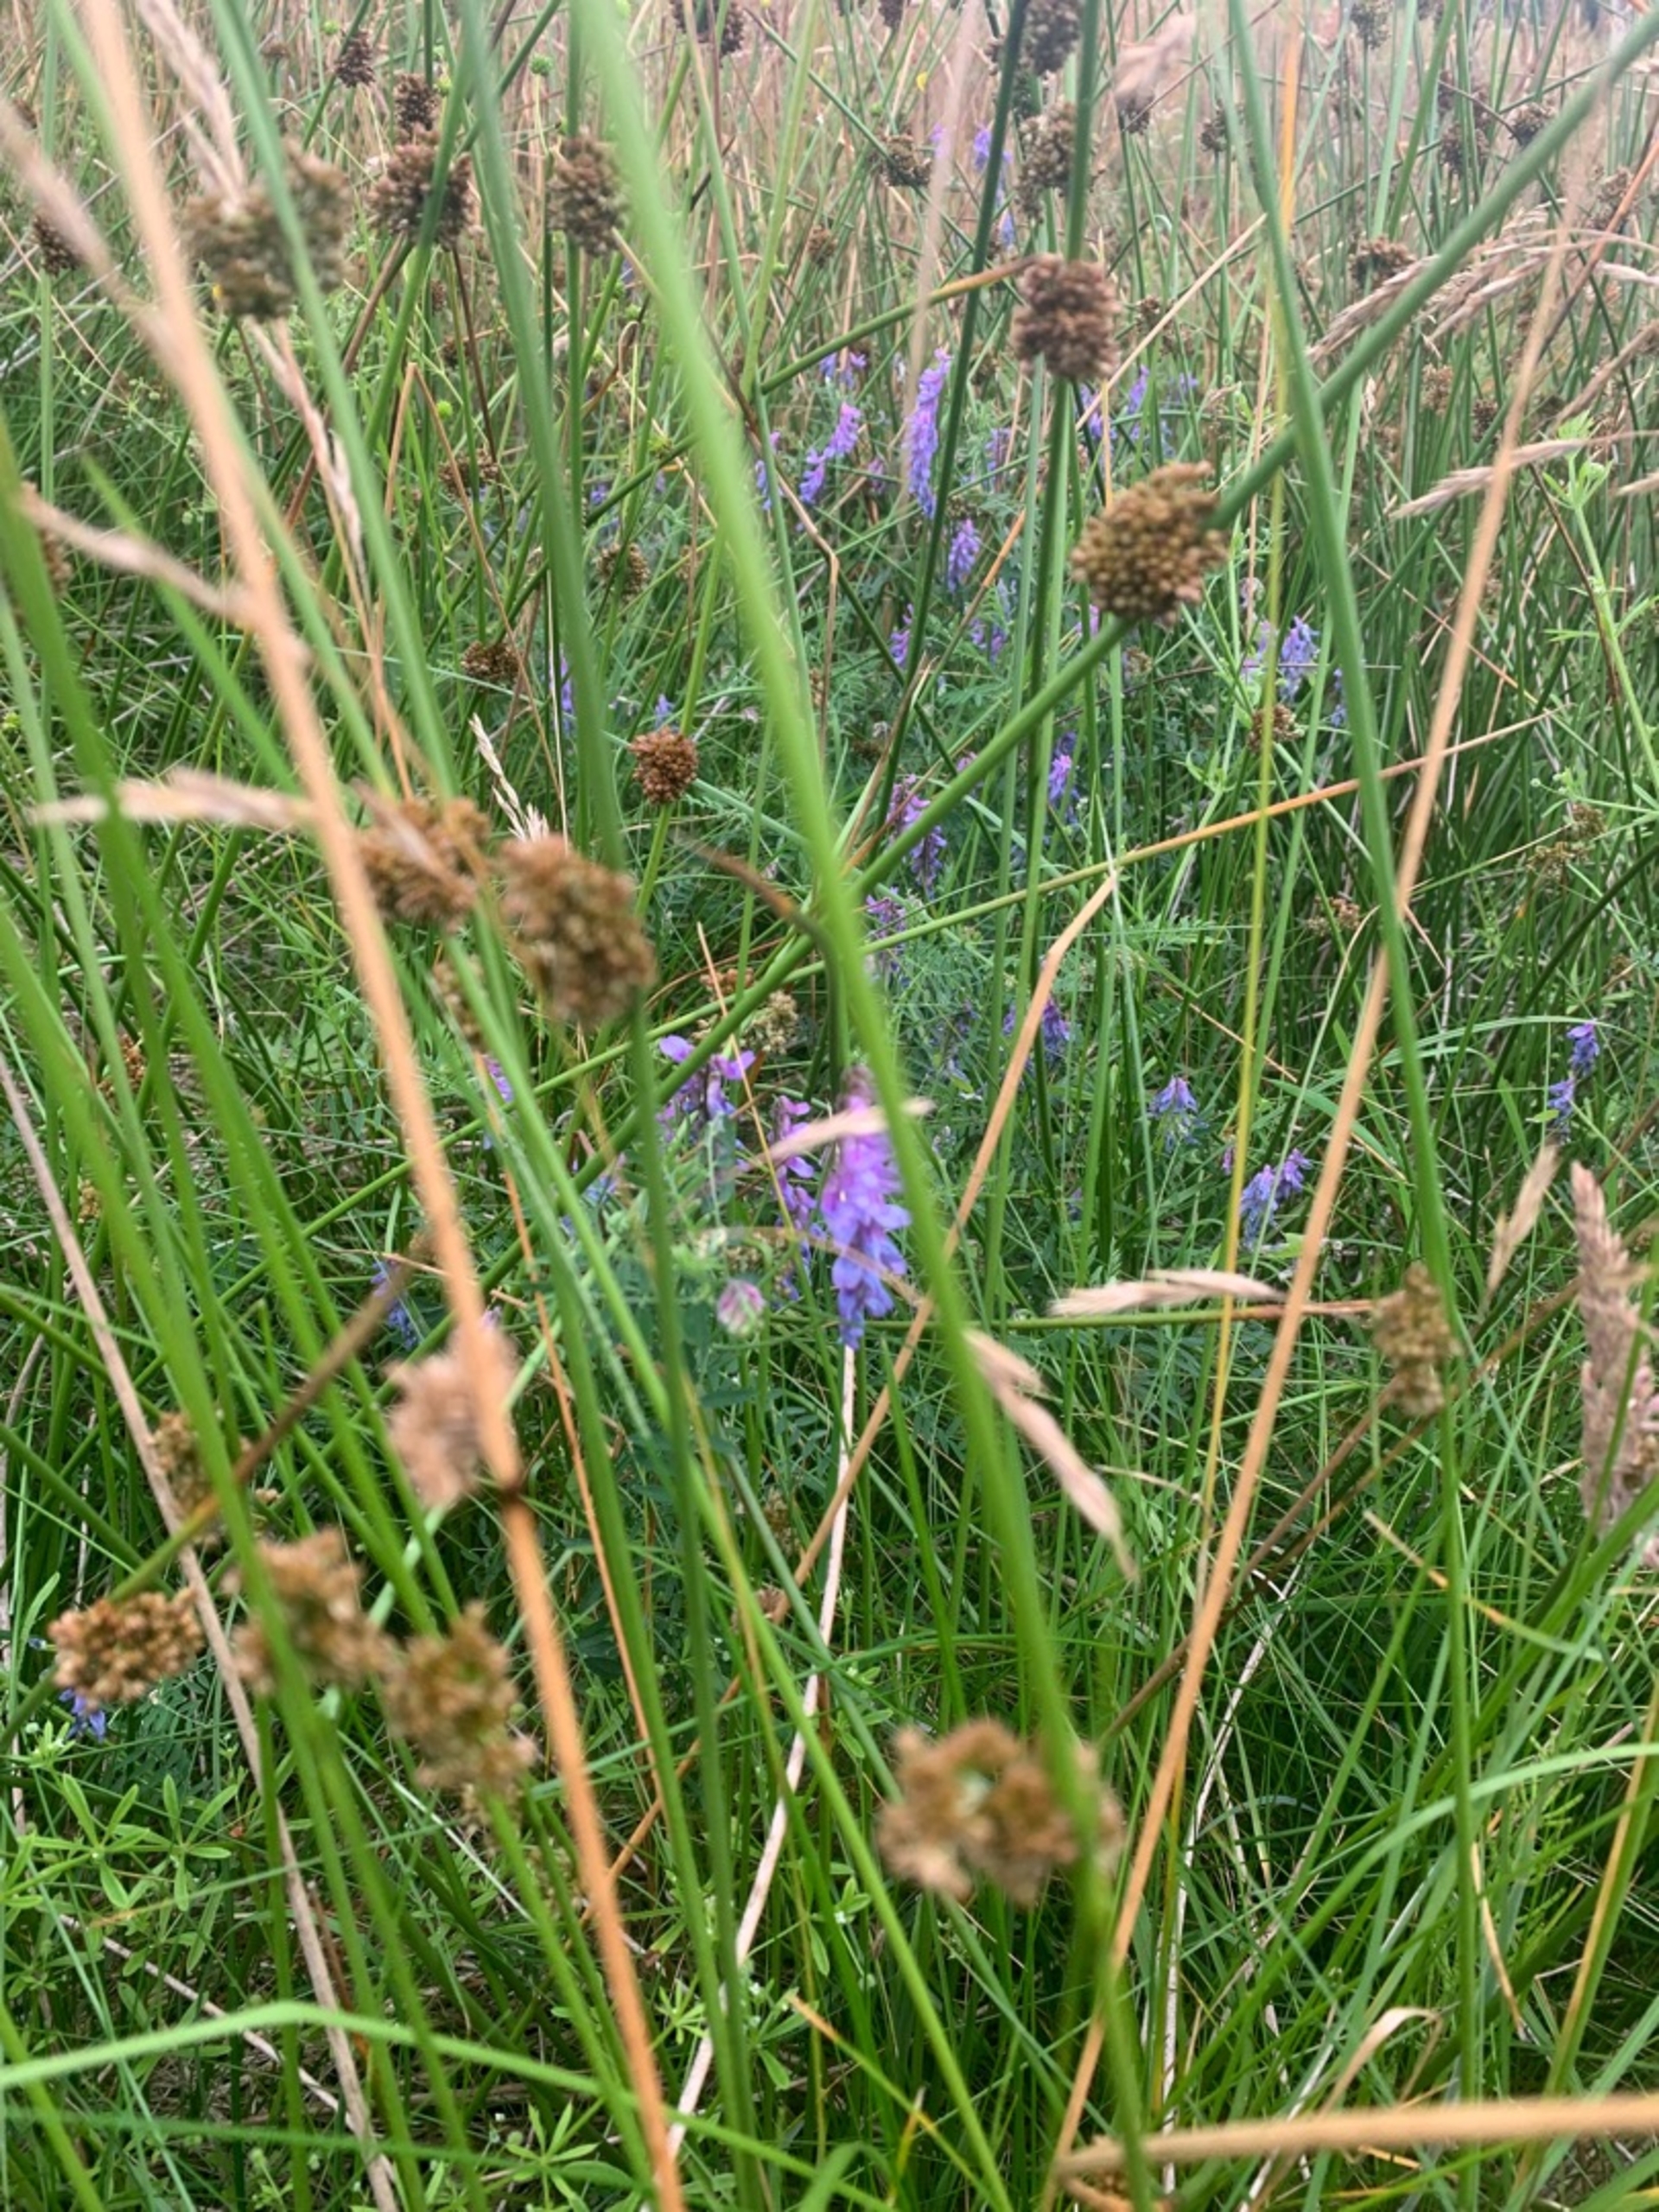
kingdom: Plantae
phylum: Tracheophyta
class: Magnoliopsida
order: Fabales
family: Fabaceae
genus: Vicia
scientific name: Vicia cracca
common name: Muse-vikke
